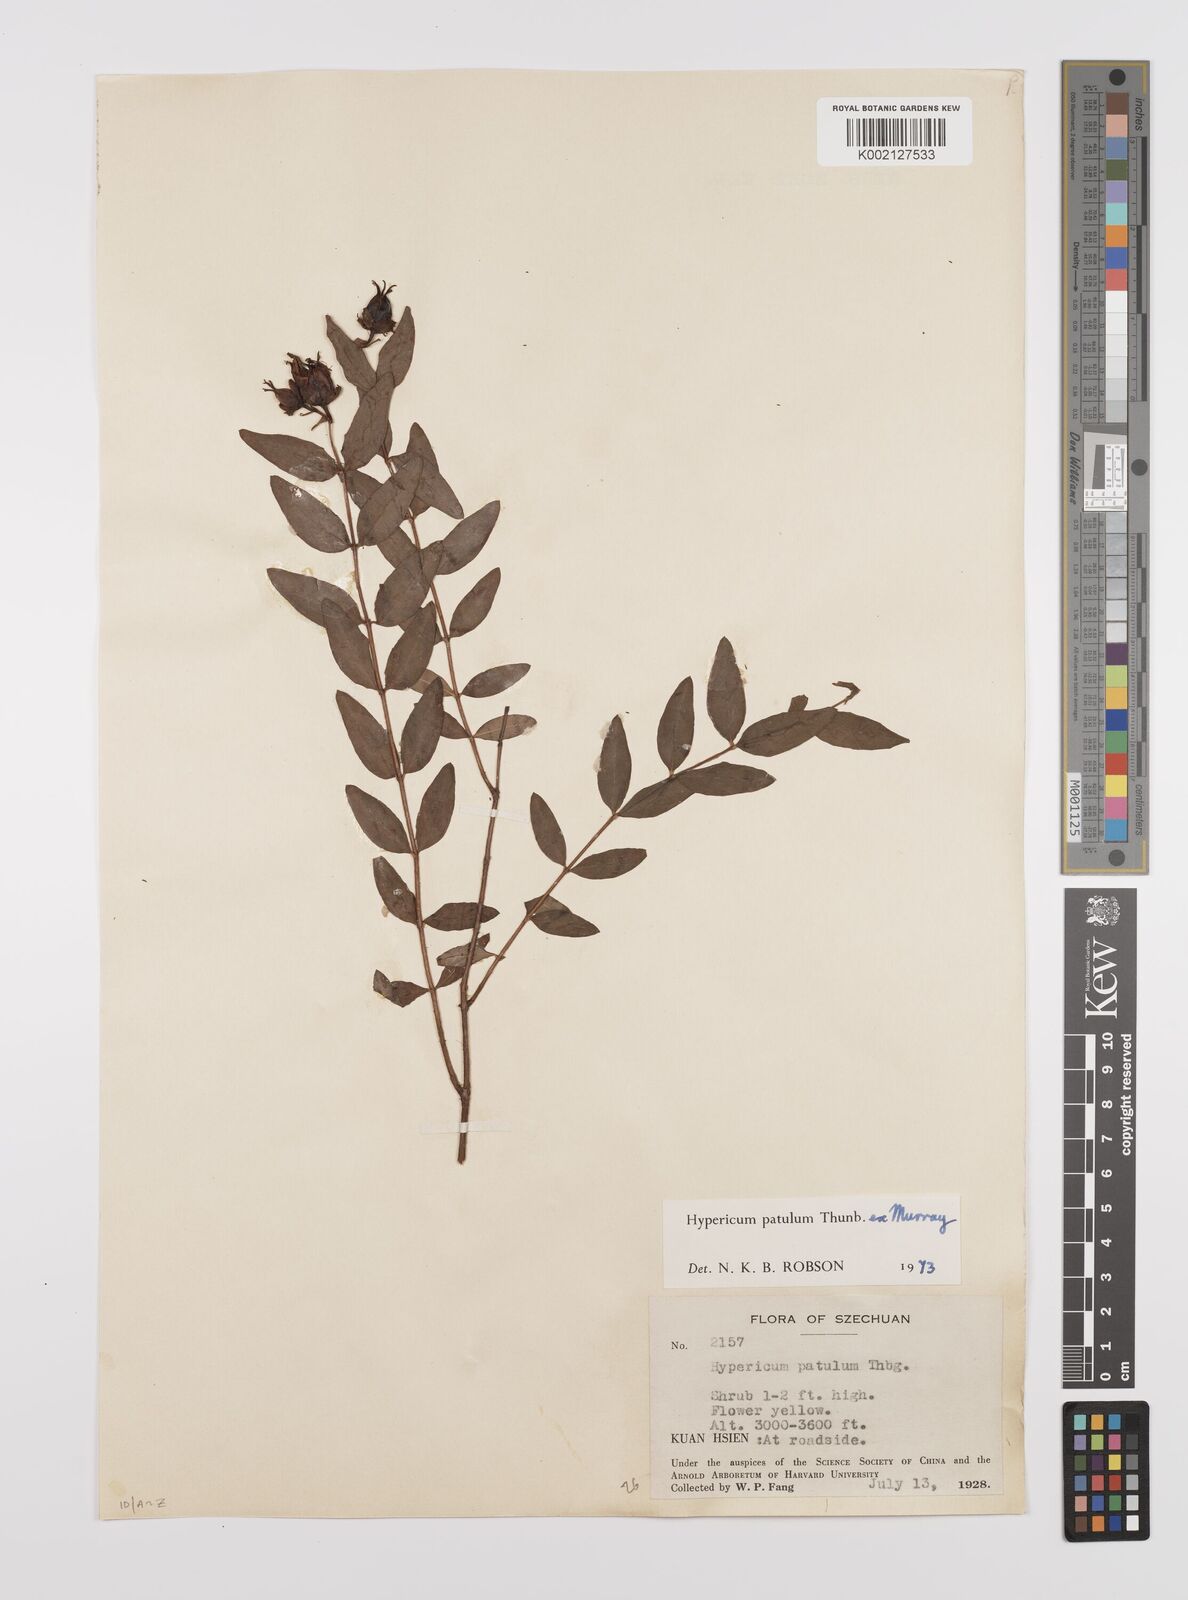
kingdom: Plantae
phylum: Tracheophyta
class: Magnoliopsida
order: Malpighiales
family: Hypericaceae
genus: Hypericum
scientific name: Hypericum patulum
